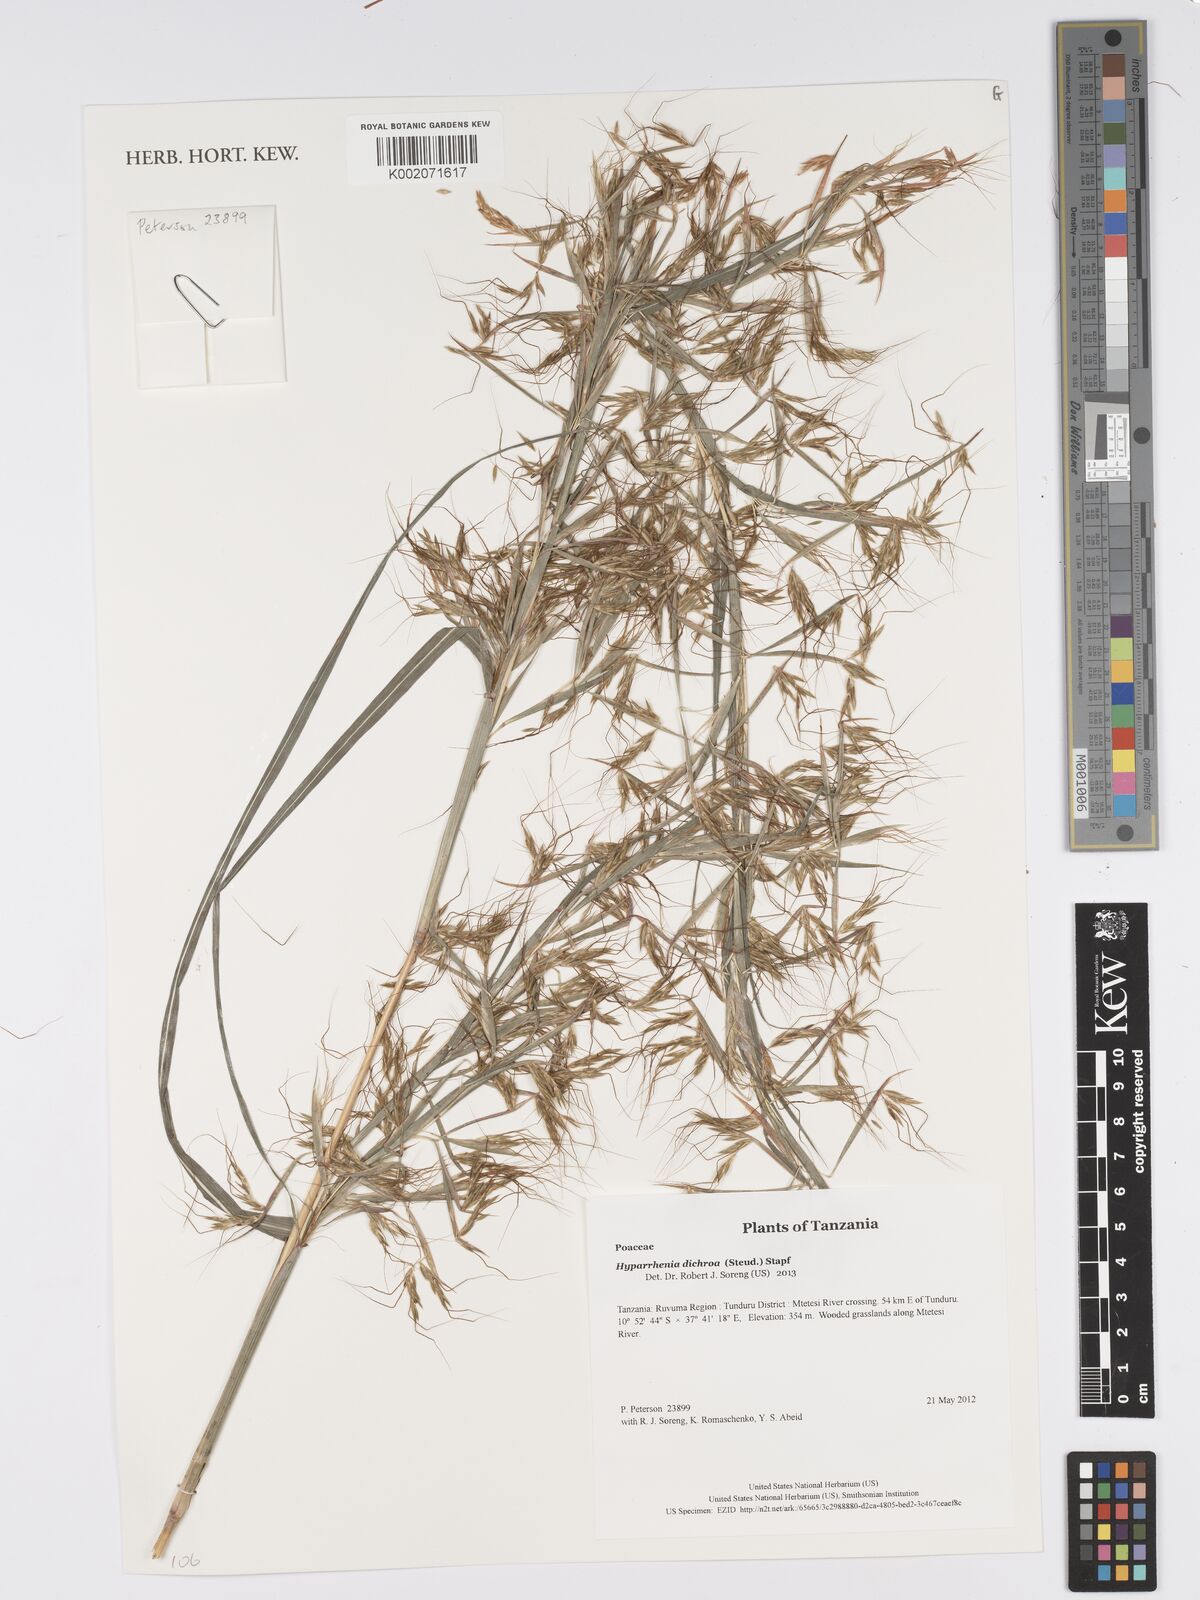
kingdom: Plantae
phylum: Tracheophyta
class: Liliopsida
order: Poales
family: Poaceae
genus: Hyparrhenia
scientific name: Hyparrhenia dichroa
